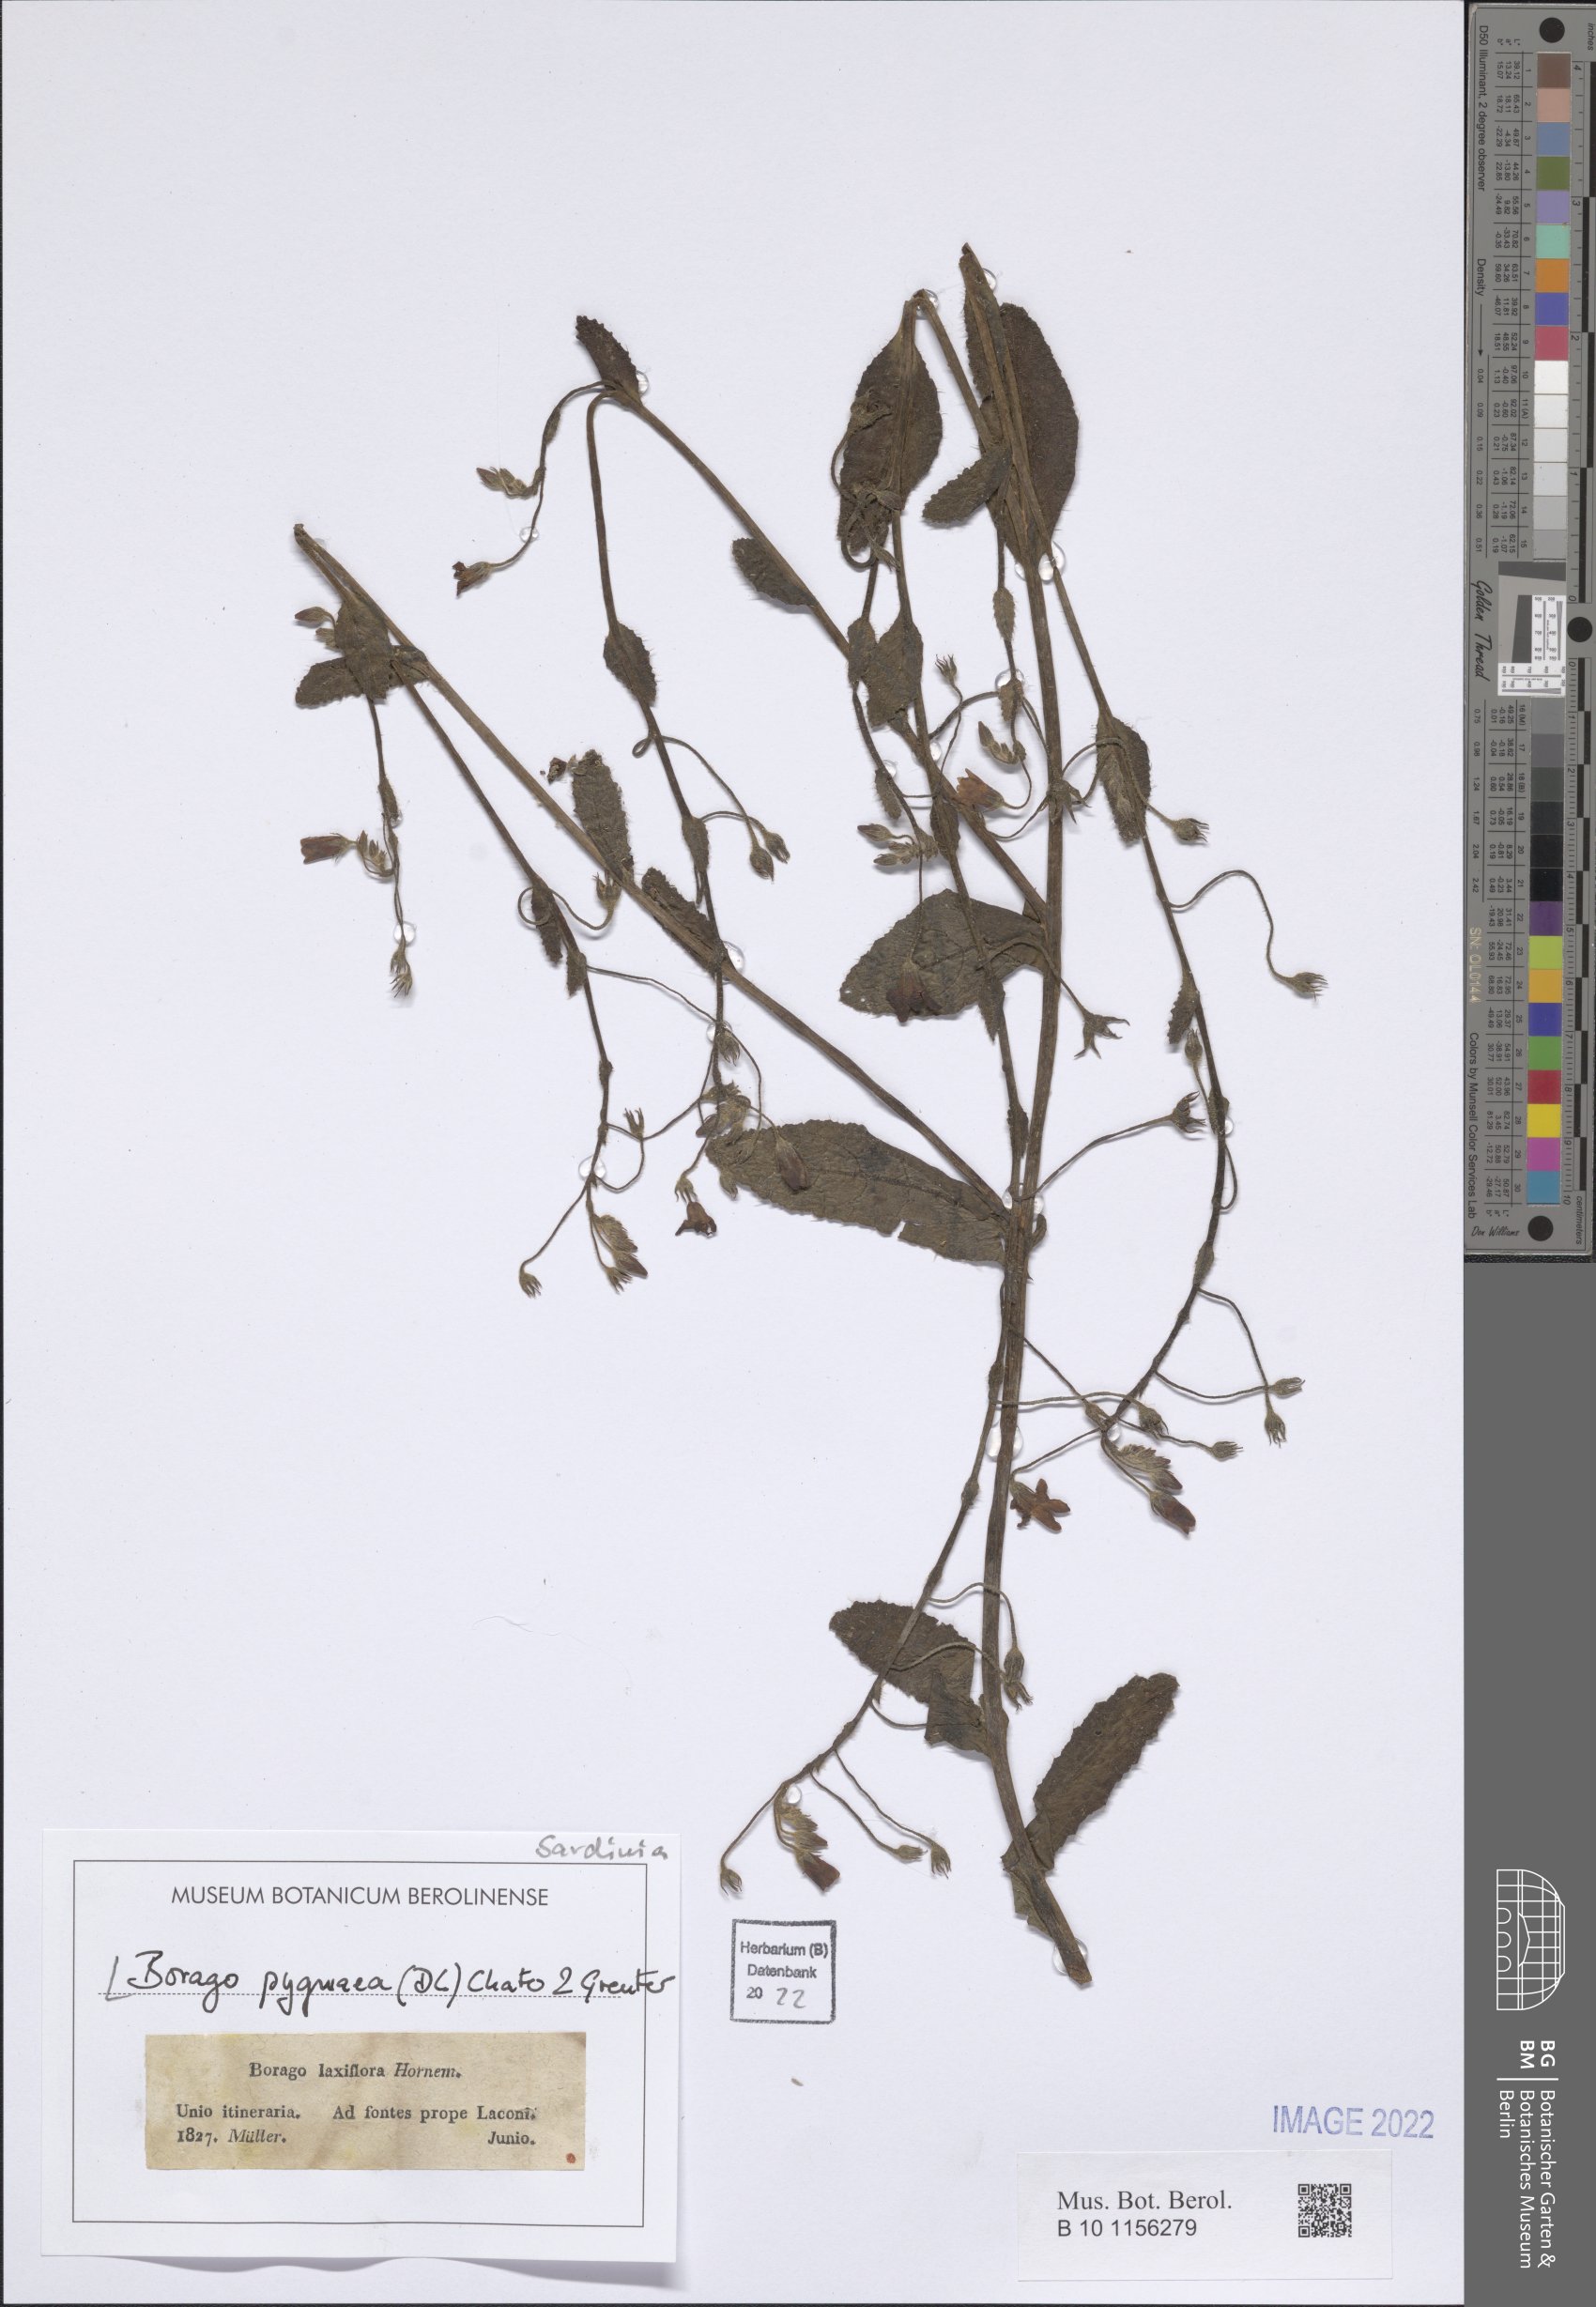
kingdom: Plantae
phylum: Tracheophyta
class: Magnoliopsida
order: Boraginales
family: Boraginaceae
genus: Borago
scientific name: Borago pygmaea
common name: Slender borage
